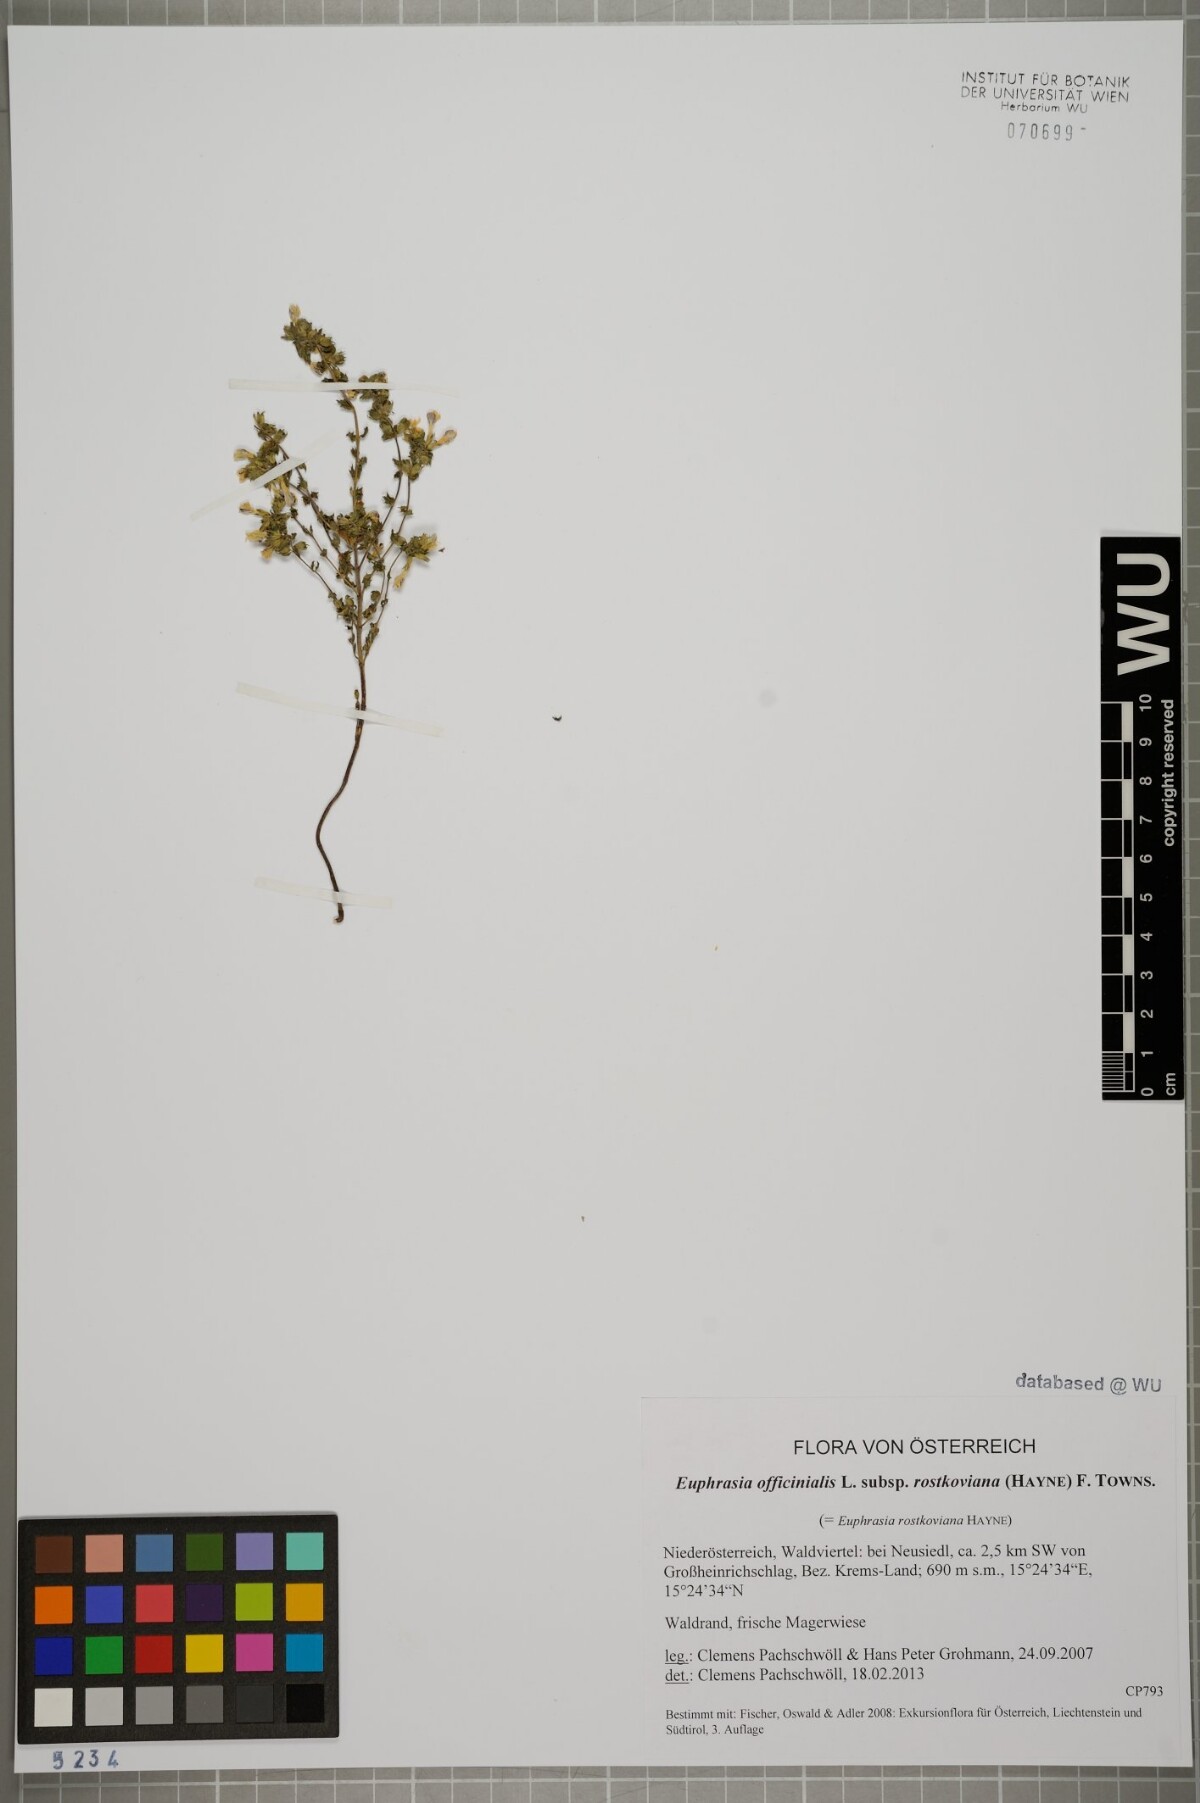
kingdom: Plantae
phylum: Tracheophyta
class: Magnoliopsida
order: Lamiales
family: Orobanchaceae
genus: Euphrasia
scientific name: Euphrasia officinalis
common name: Eyebright
